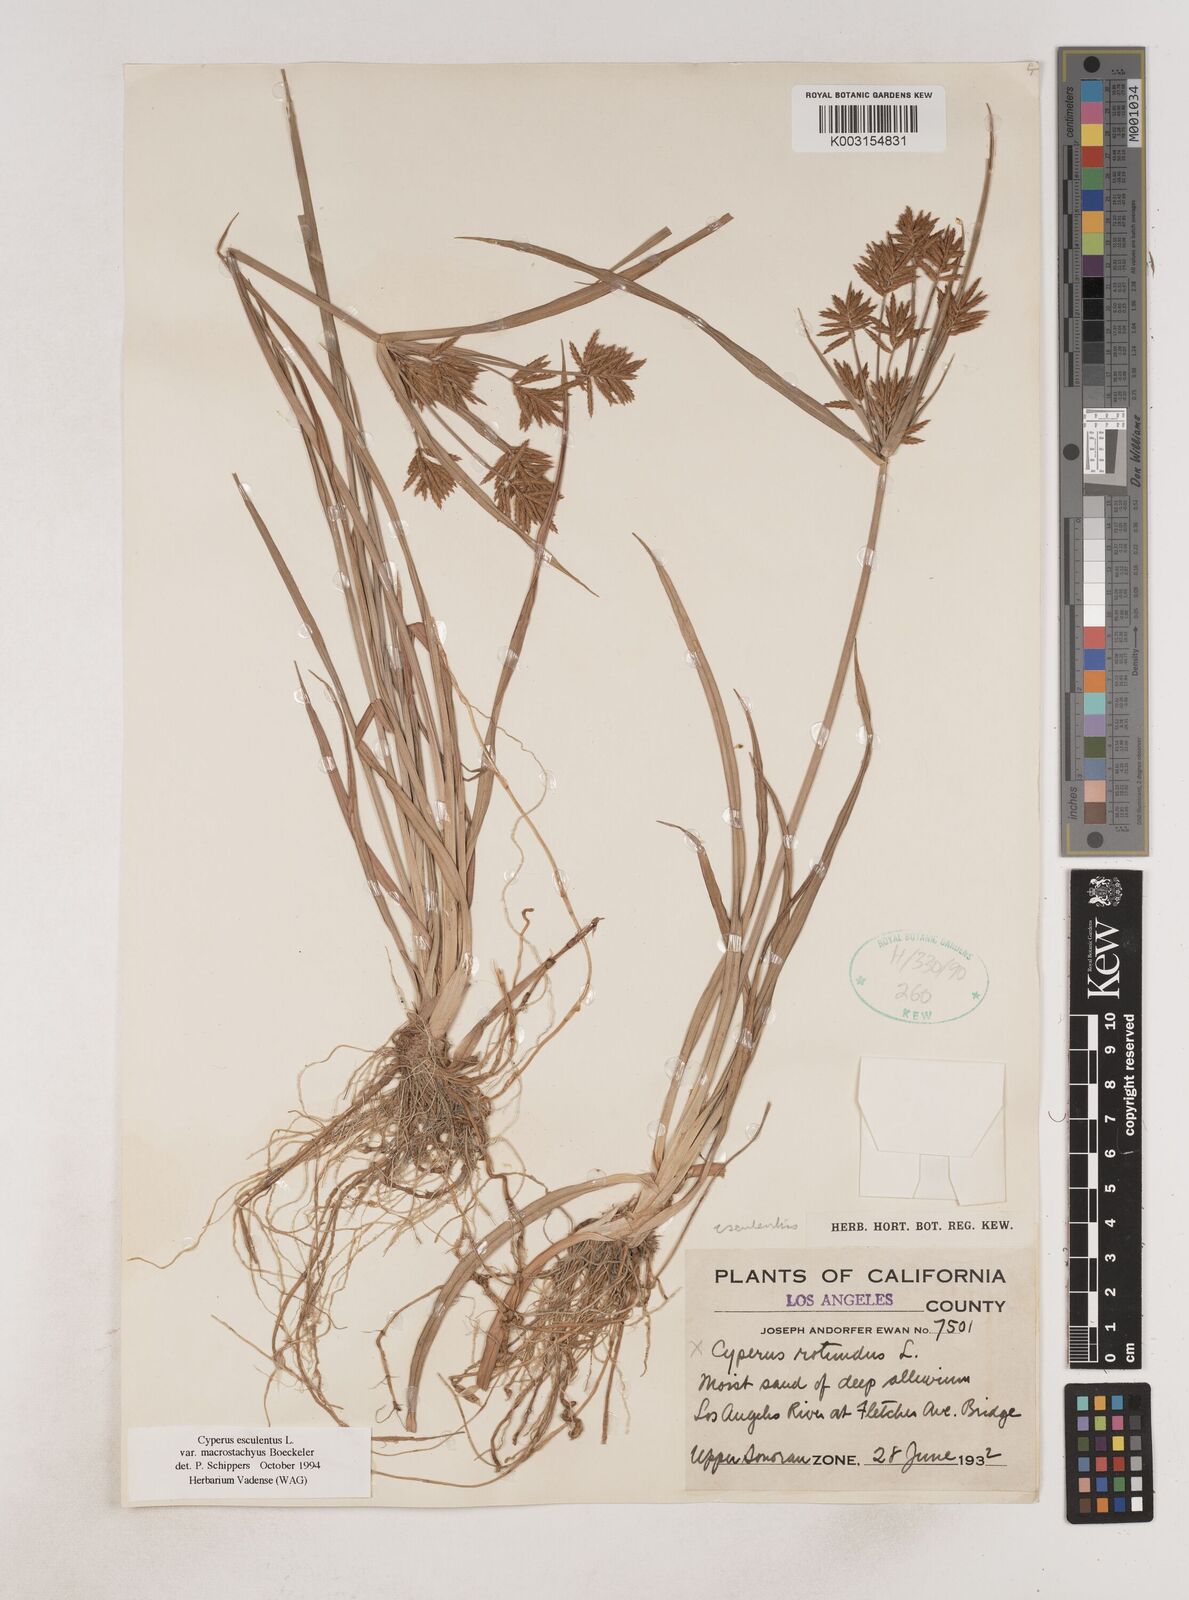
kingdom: Plantae
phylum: Tracheophyta
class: Liliopsida
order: Poales
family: Cyperaceae
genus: Cyperus
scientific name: Cyperus esculentus
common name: Yellow nutsedge
